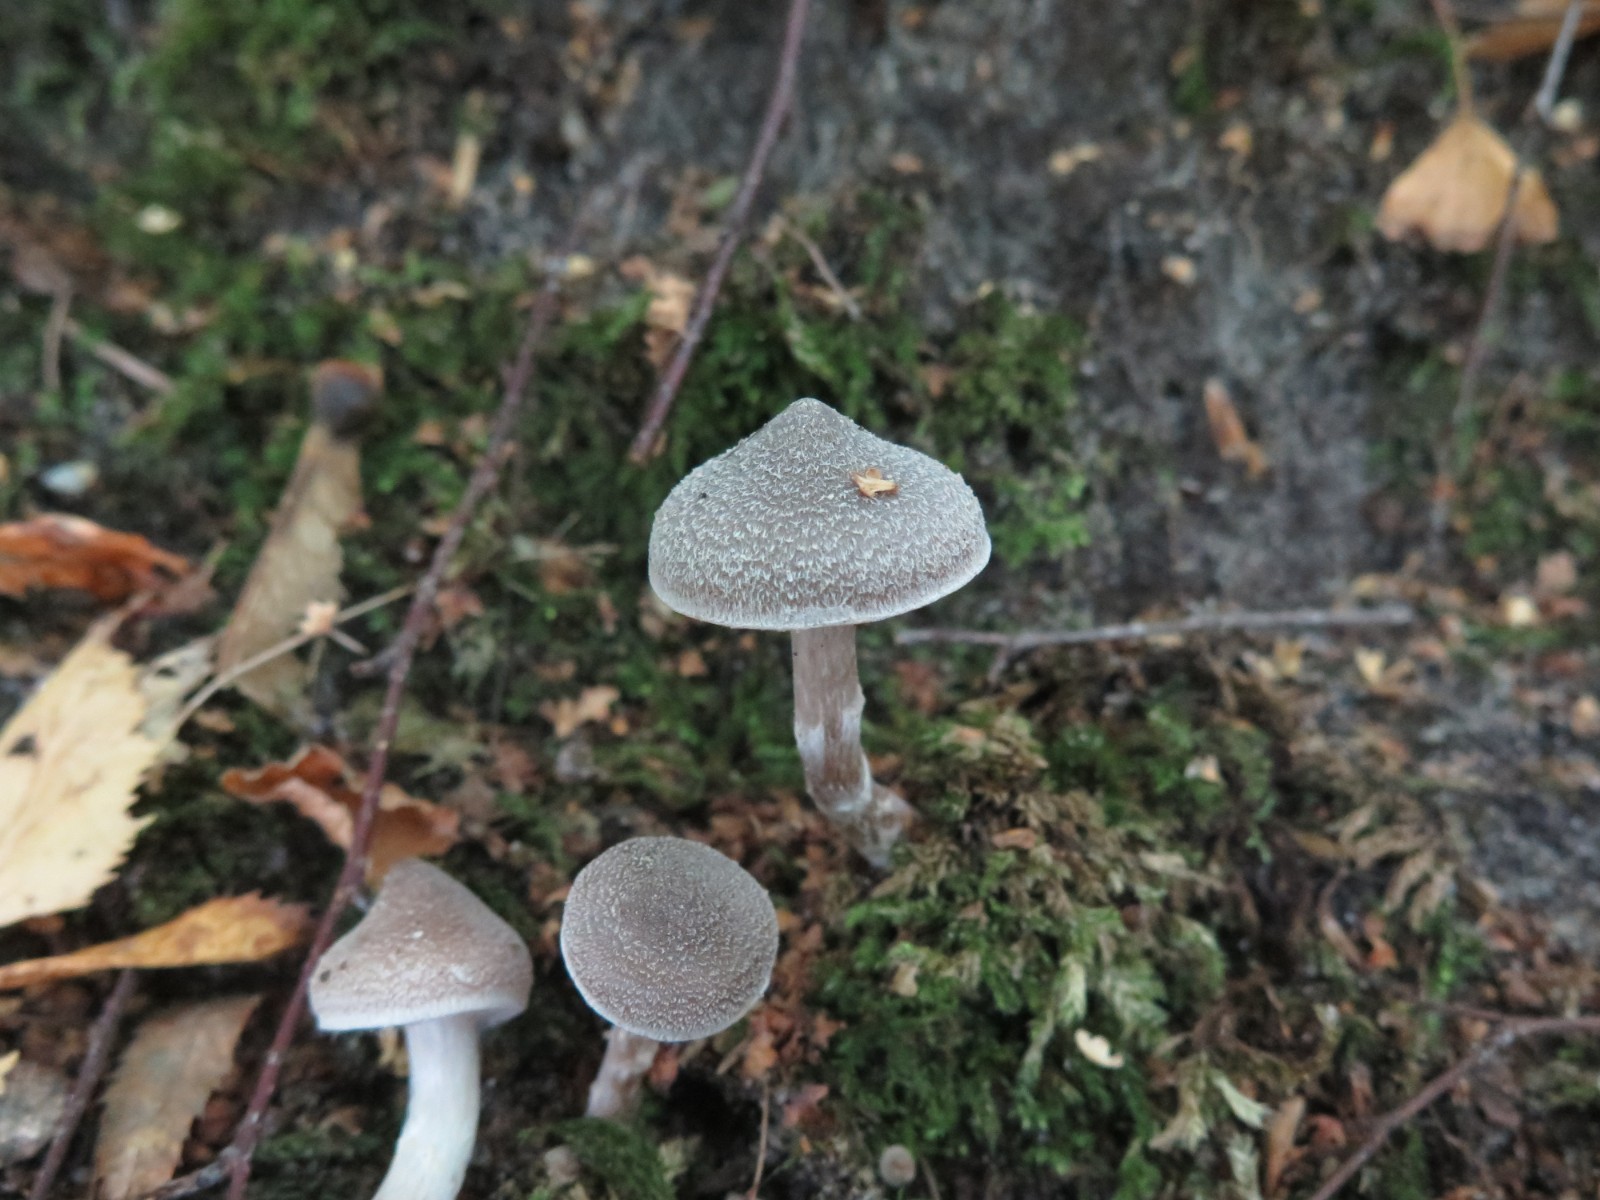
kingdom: Fungi
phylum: Basidiomycota
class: Agaricomycetes
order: Agaricales
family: Cortinariaceae
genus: Cortinarius
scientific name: Cortinarius geraniolens
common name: geranium-slørhat
